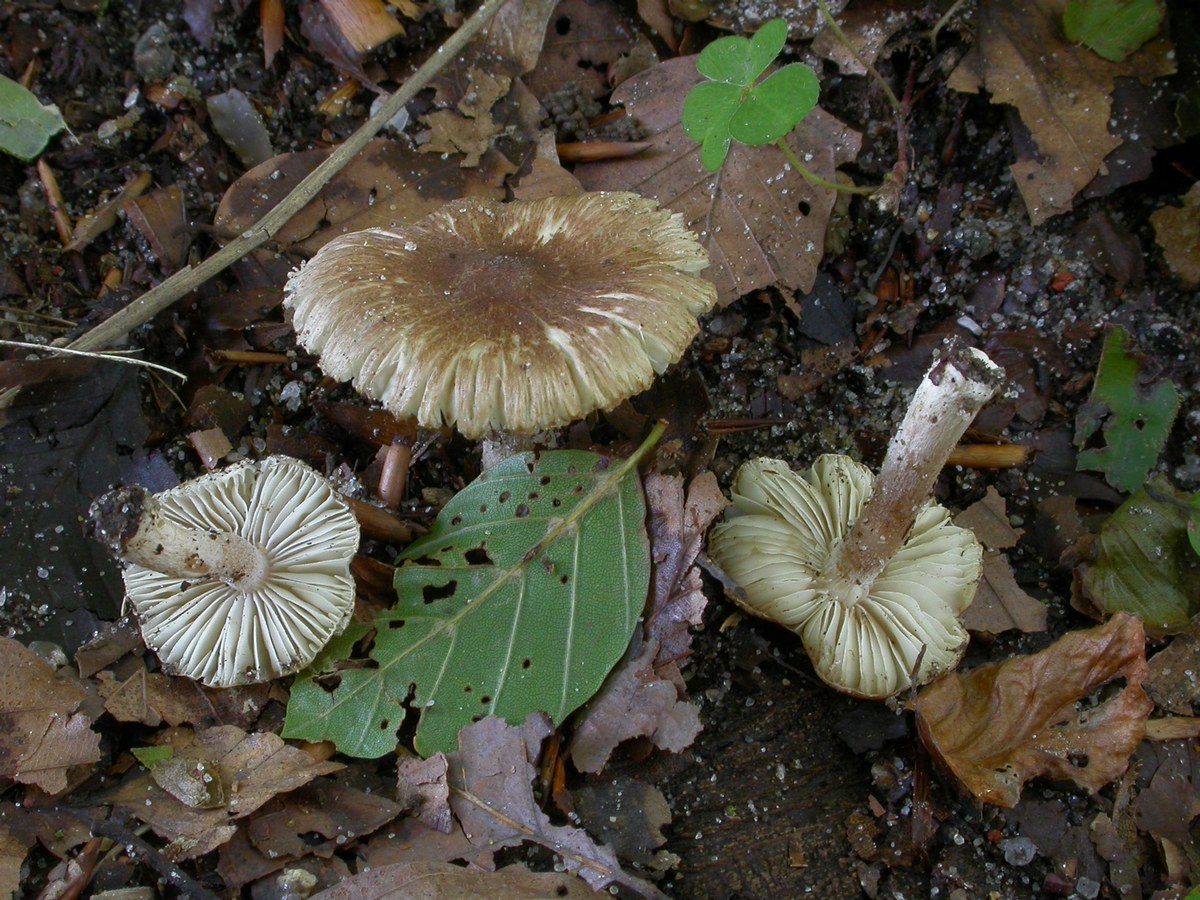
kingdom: Fungi
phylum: Basidiomycota
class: Agaricomycetes
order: Agaricales
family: Inocybaceae
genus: Inocybe
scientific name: Inocybe
